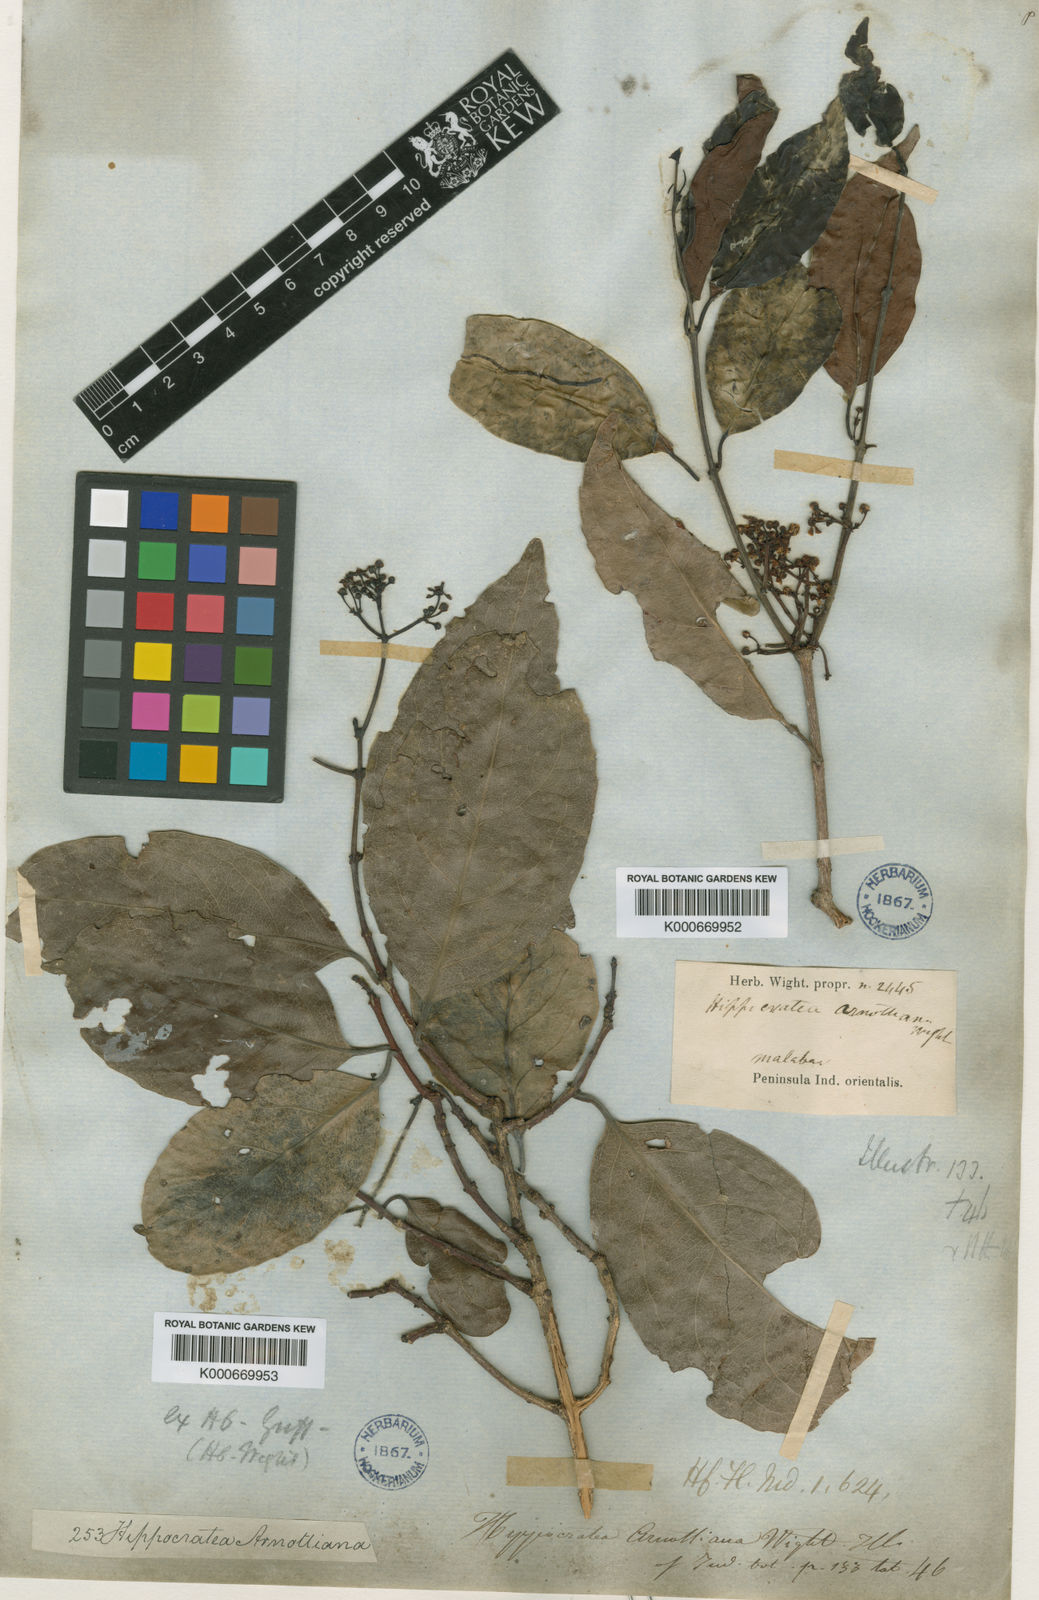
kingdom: Plantae
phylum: Tracheophyta
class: Magnoliopsida
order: Celastrales
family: Celastraceae
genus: Pristimera
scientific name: Pristimera arnottiana
